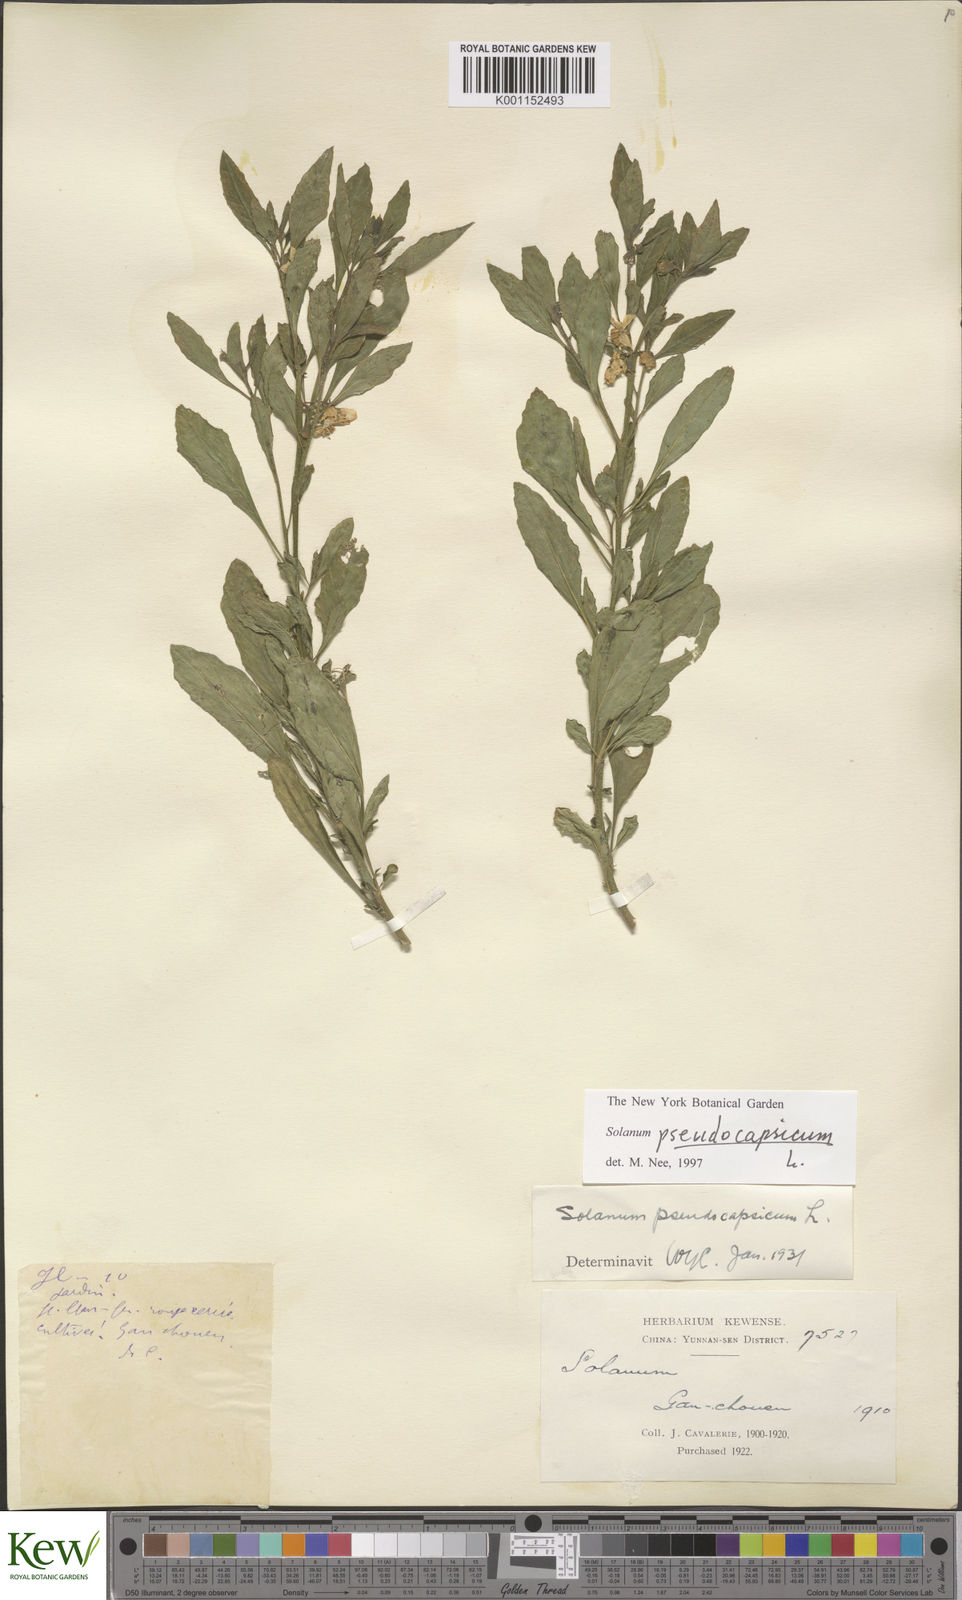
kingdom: Plantae
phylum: Tracheophyta
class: Magnoliopsida
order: Solanales
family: Solanaceae
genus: Solanum
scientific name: Solanum pseudocapsicum
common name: Jerusalem cherry
